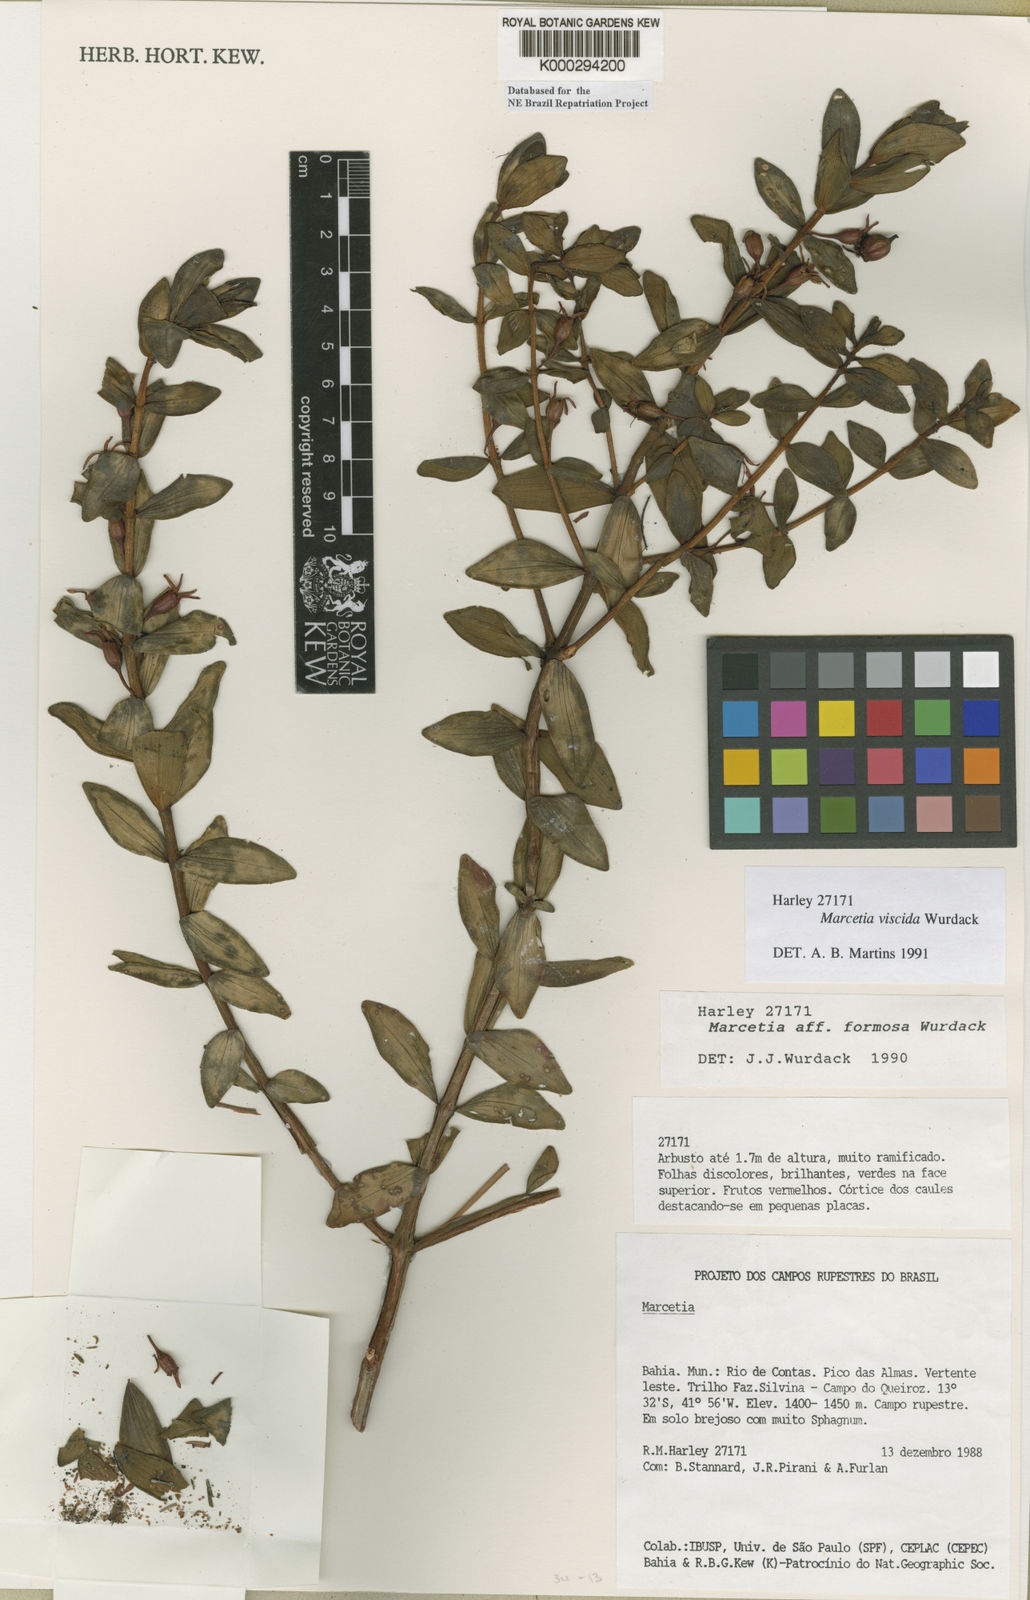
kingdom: Plantae
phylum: Tracheophyta
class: Magnoliopsida
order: Myrtales
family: Melastomataceae
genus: Marcetia
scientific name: Marcetia viscida
